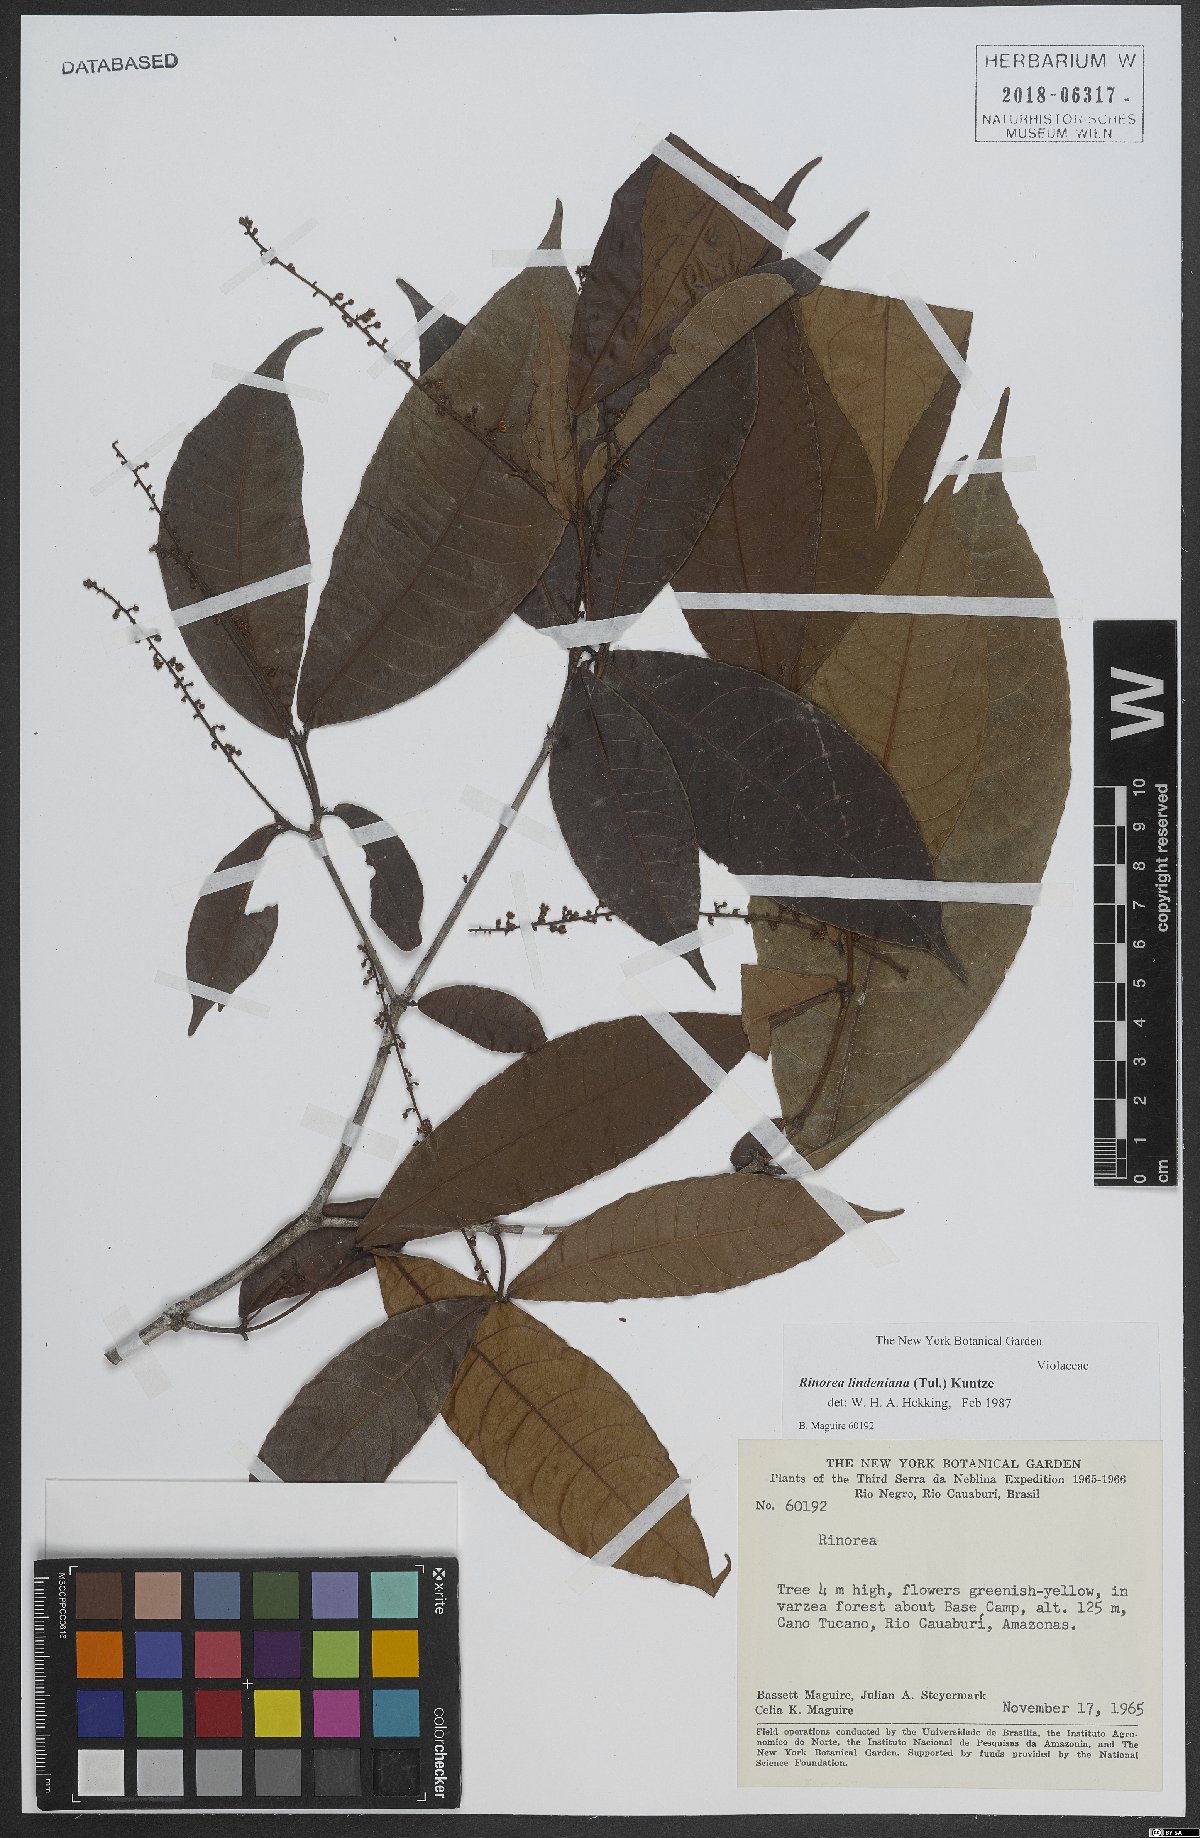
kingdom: Plantae
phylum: Tracheophyta
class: Magnoliopsida
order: Malpighiales
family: Violaceae
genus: Rinorea
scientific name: Rinorea lindeniana
